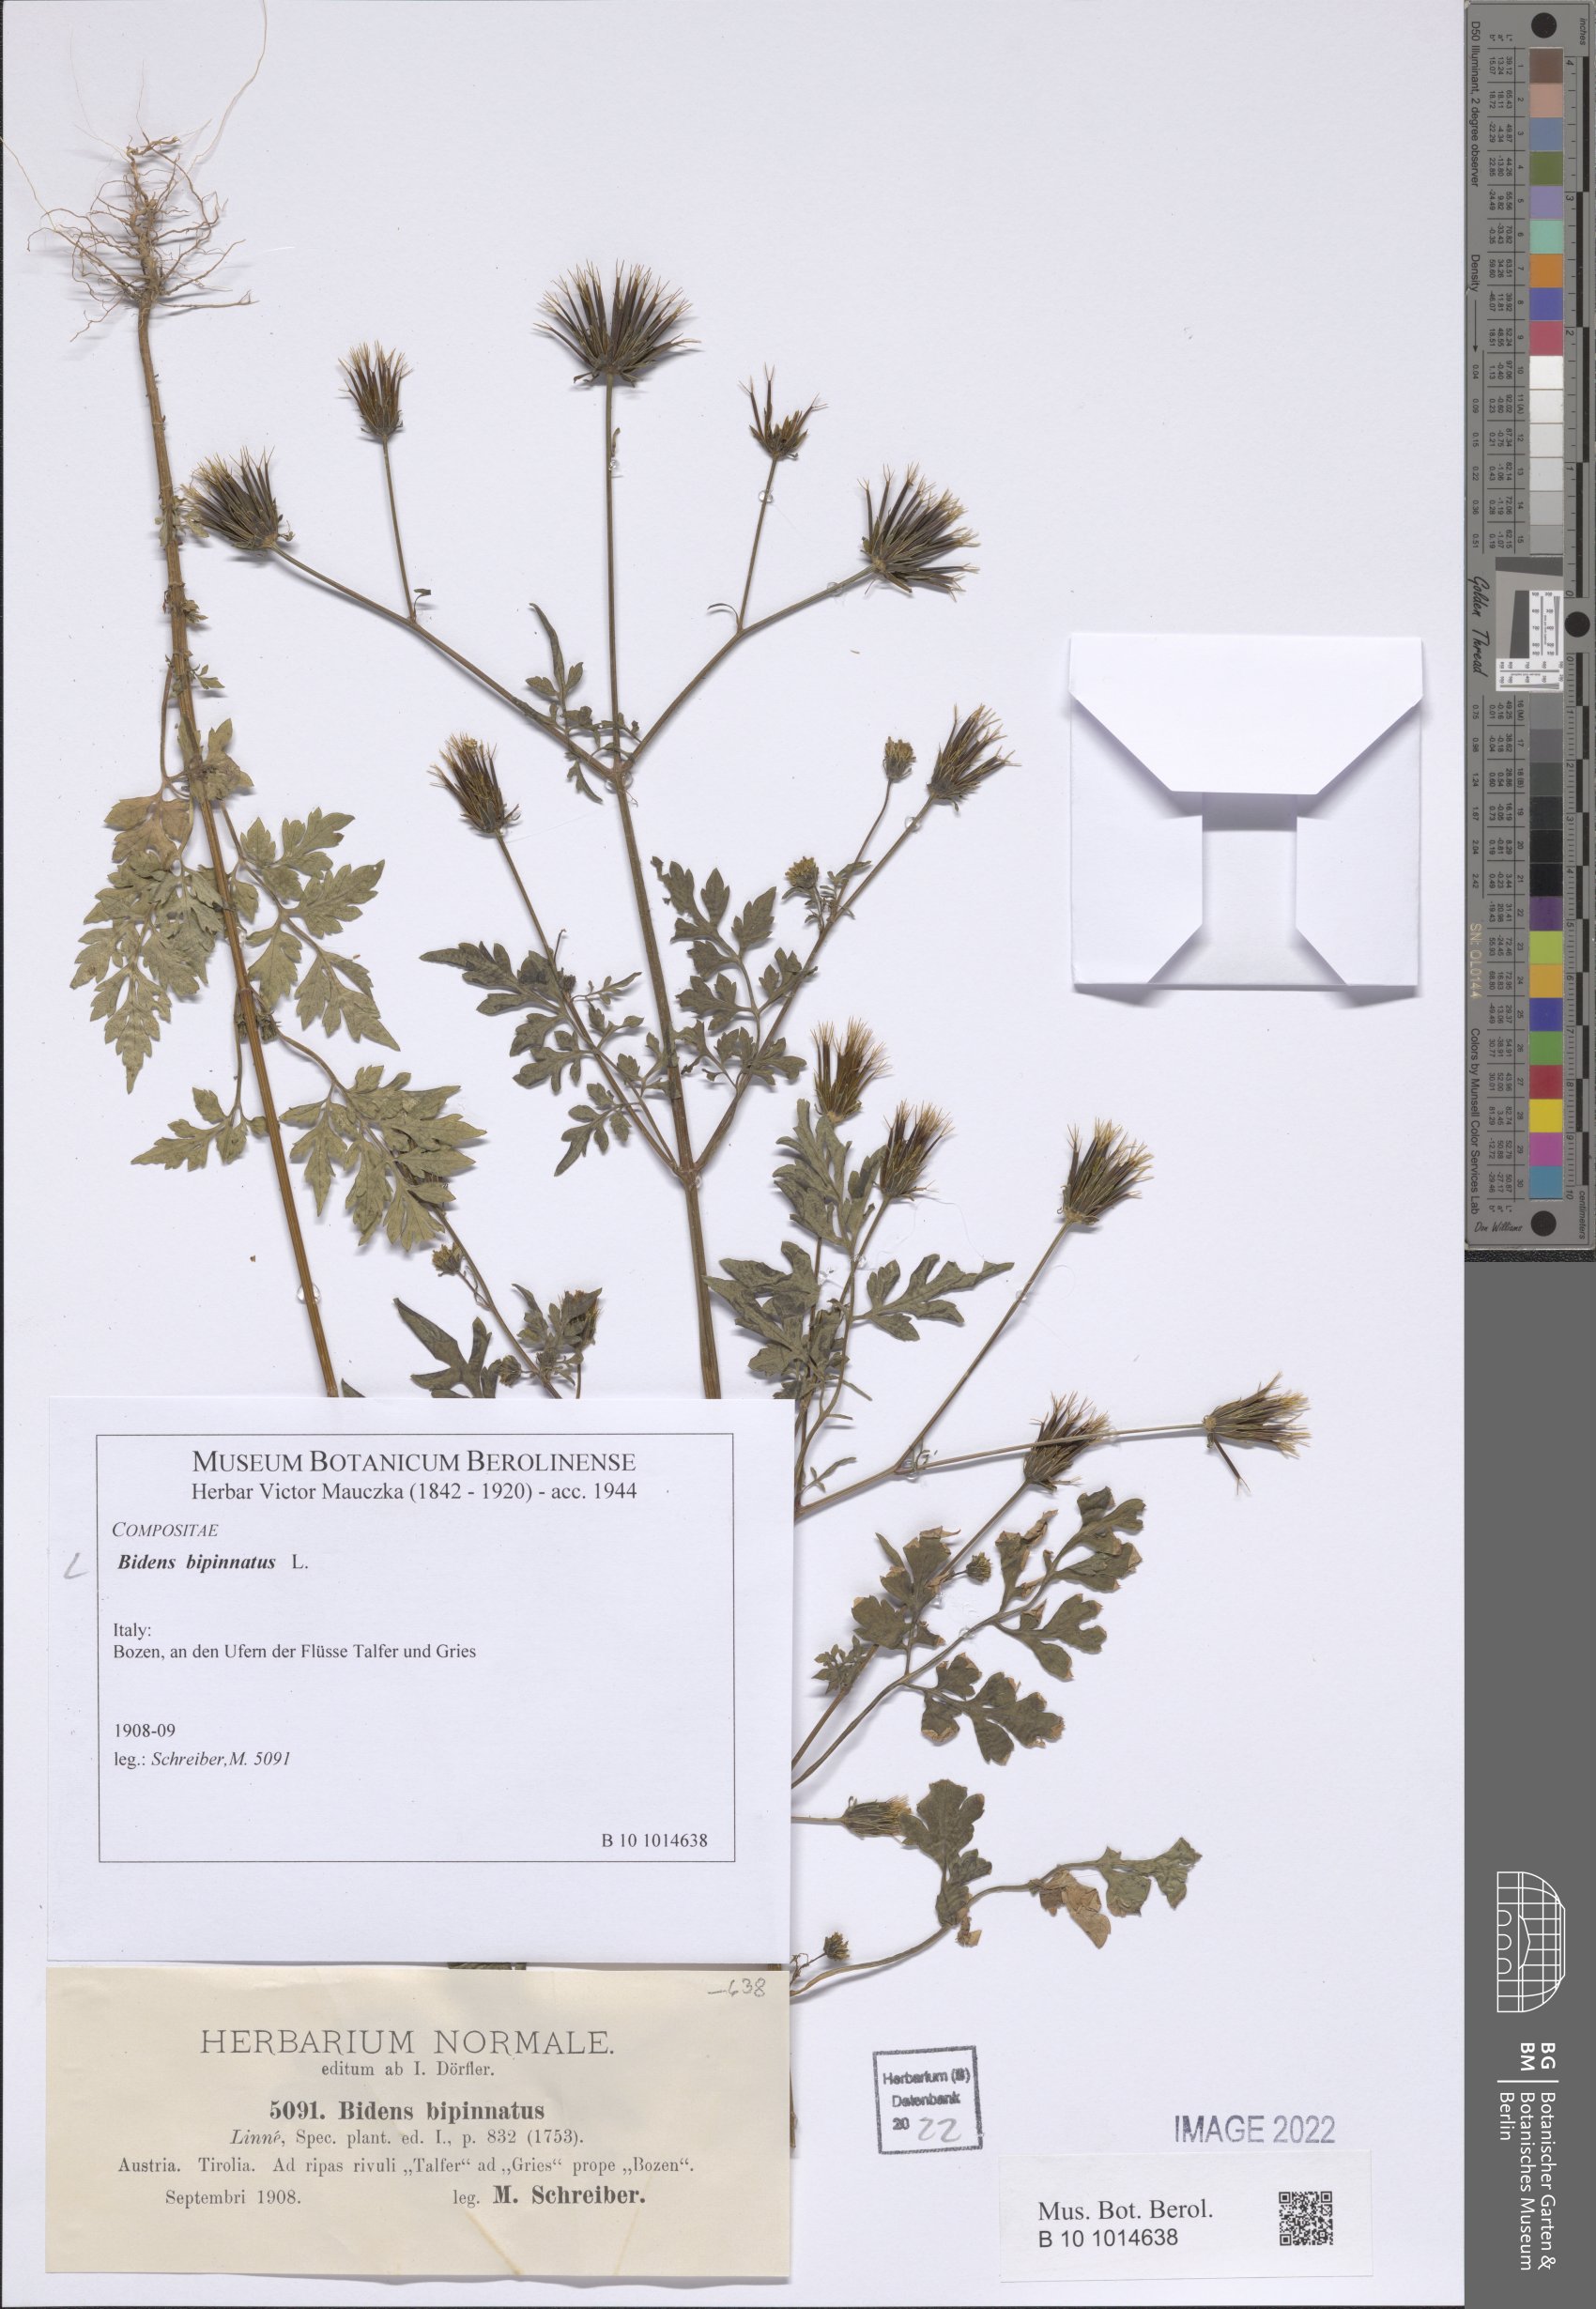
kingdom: Plantae
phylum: Tracheophyta
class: Magnoliopsida
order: Asterales
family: Asteraceae
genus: Bidens
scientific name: Bidens bipinnata
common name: Spanish-needles
